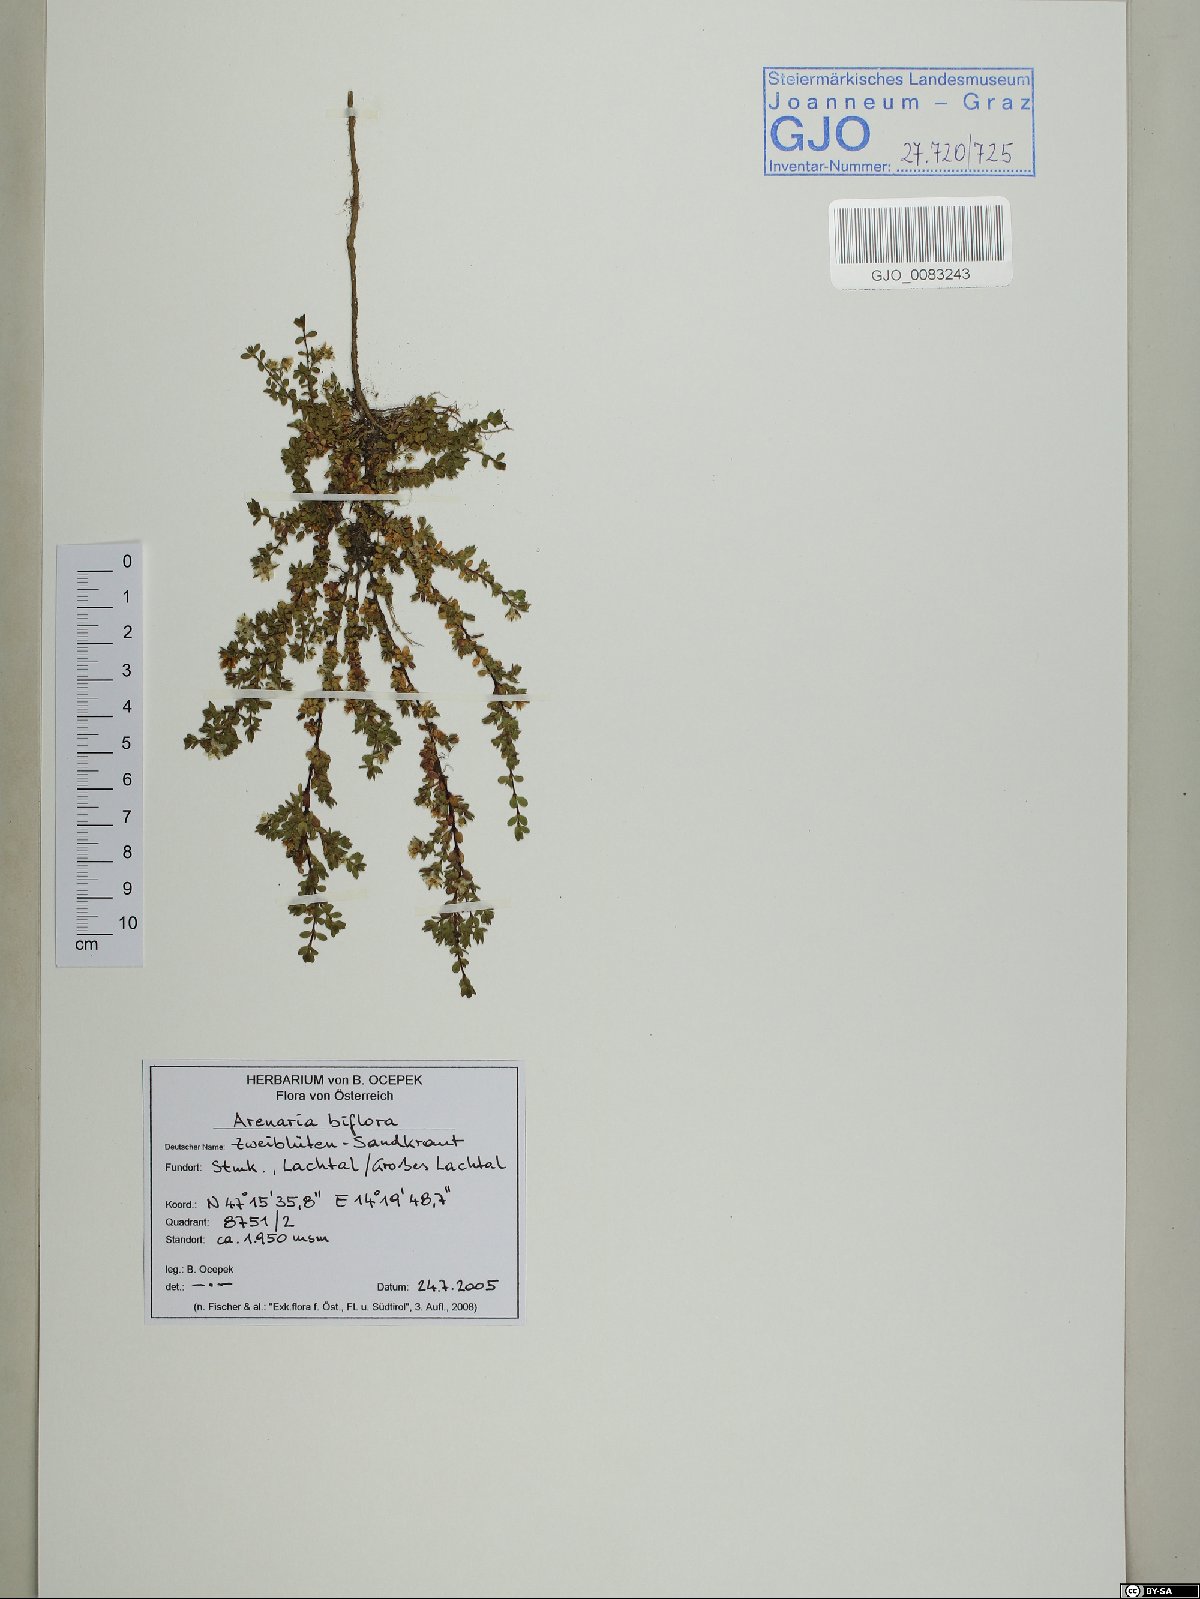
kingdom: Plantae
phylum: Tracheophyta
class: Magnoliopsida
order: Caryophyllales
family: Caryophyllaceae
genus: Arenaria
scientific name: Arenaria biflora
